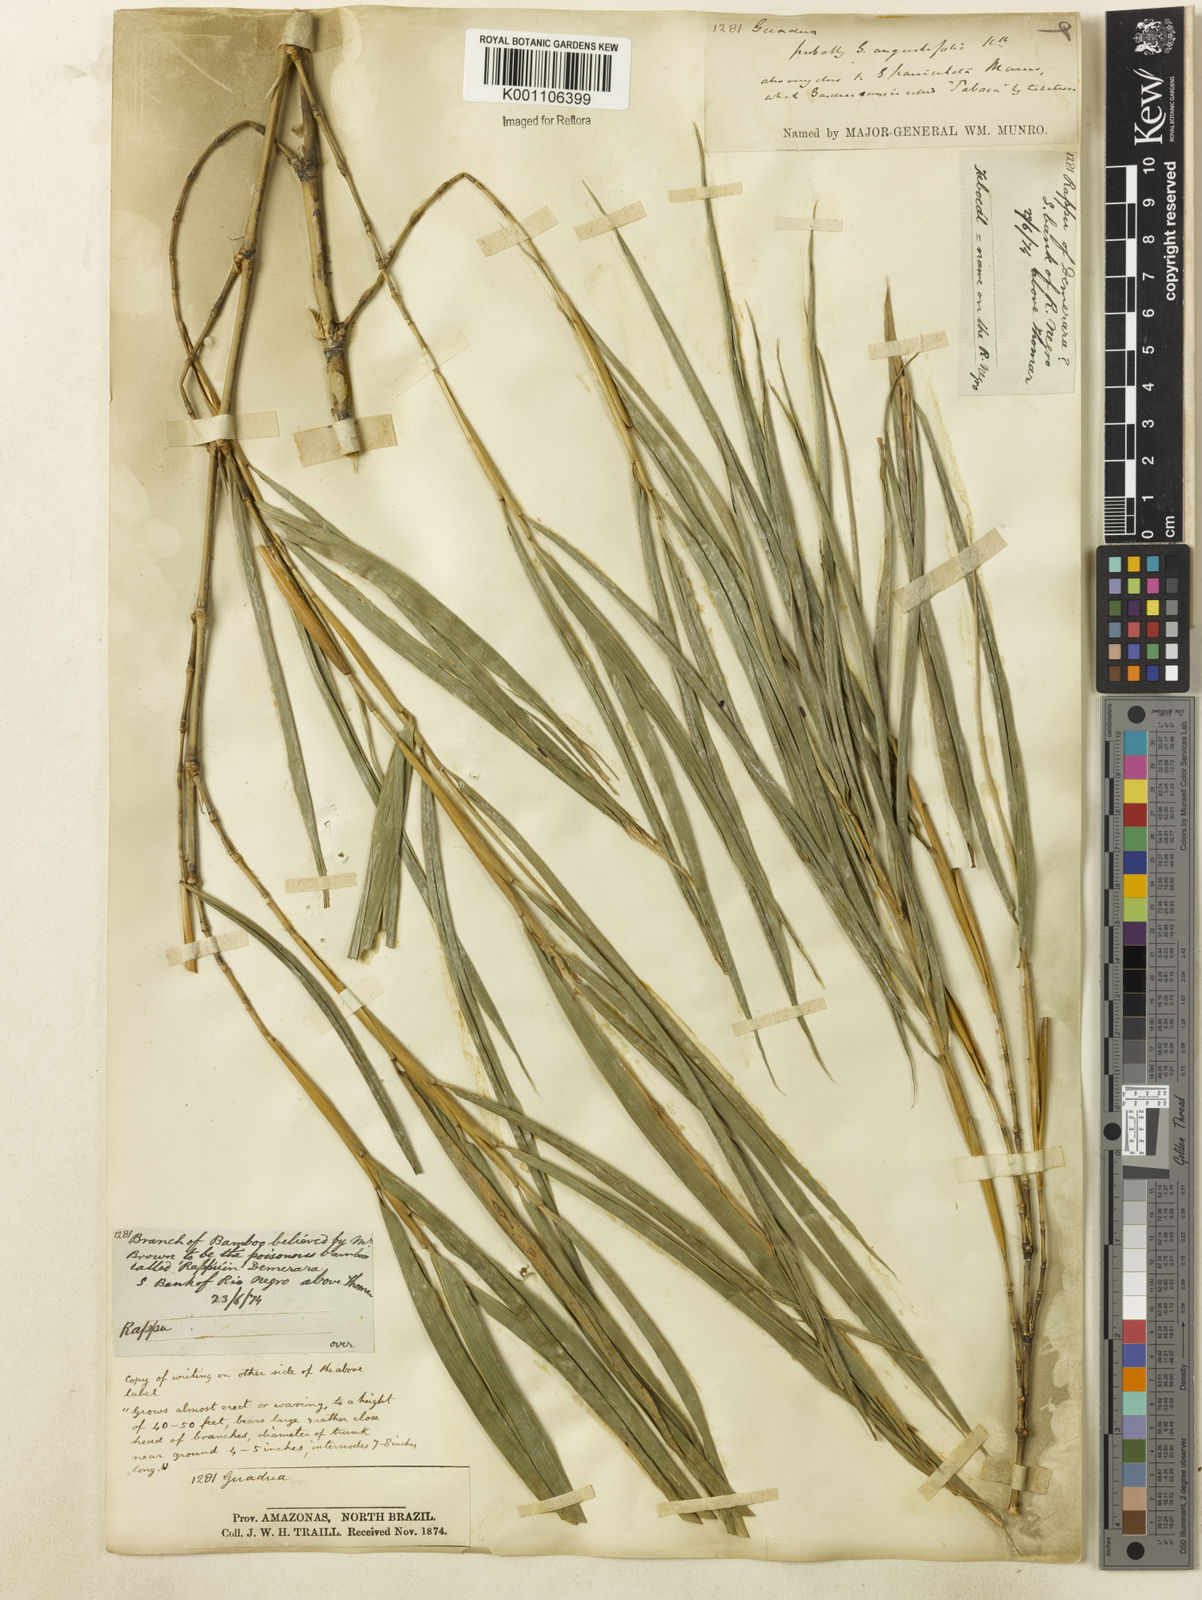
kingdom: Plantae
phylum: Tracheophyta
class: Liliopsida
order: Poales
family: Poaceae
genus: Guadua
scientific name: Guadua
